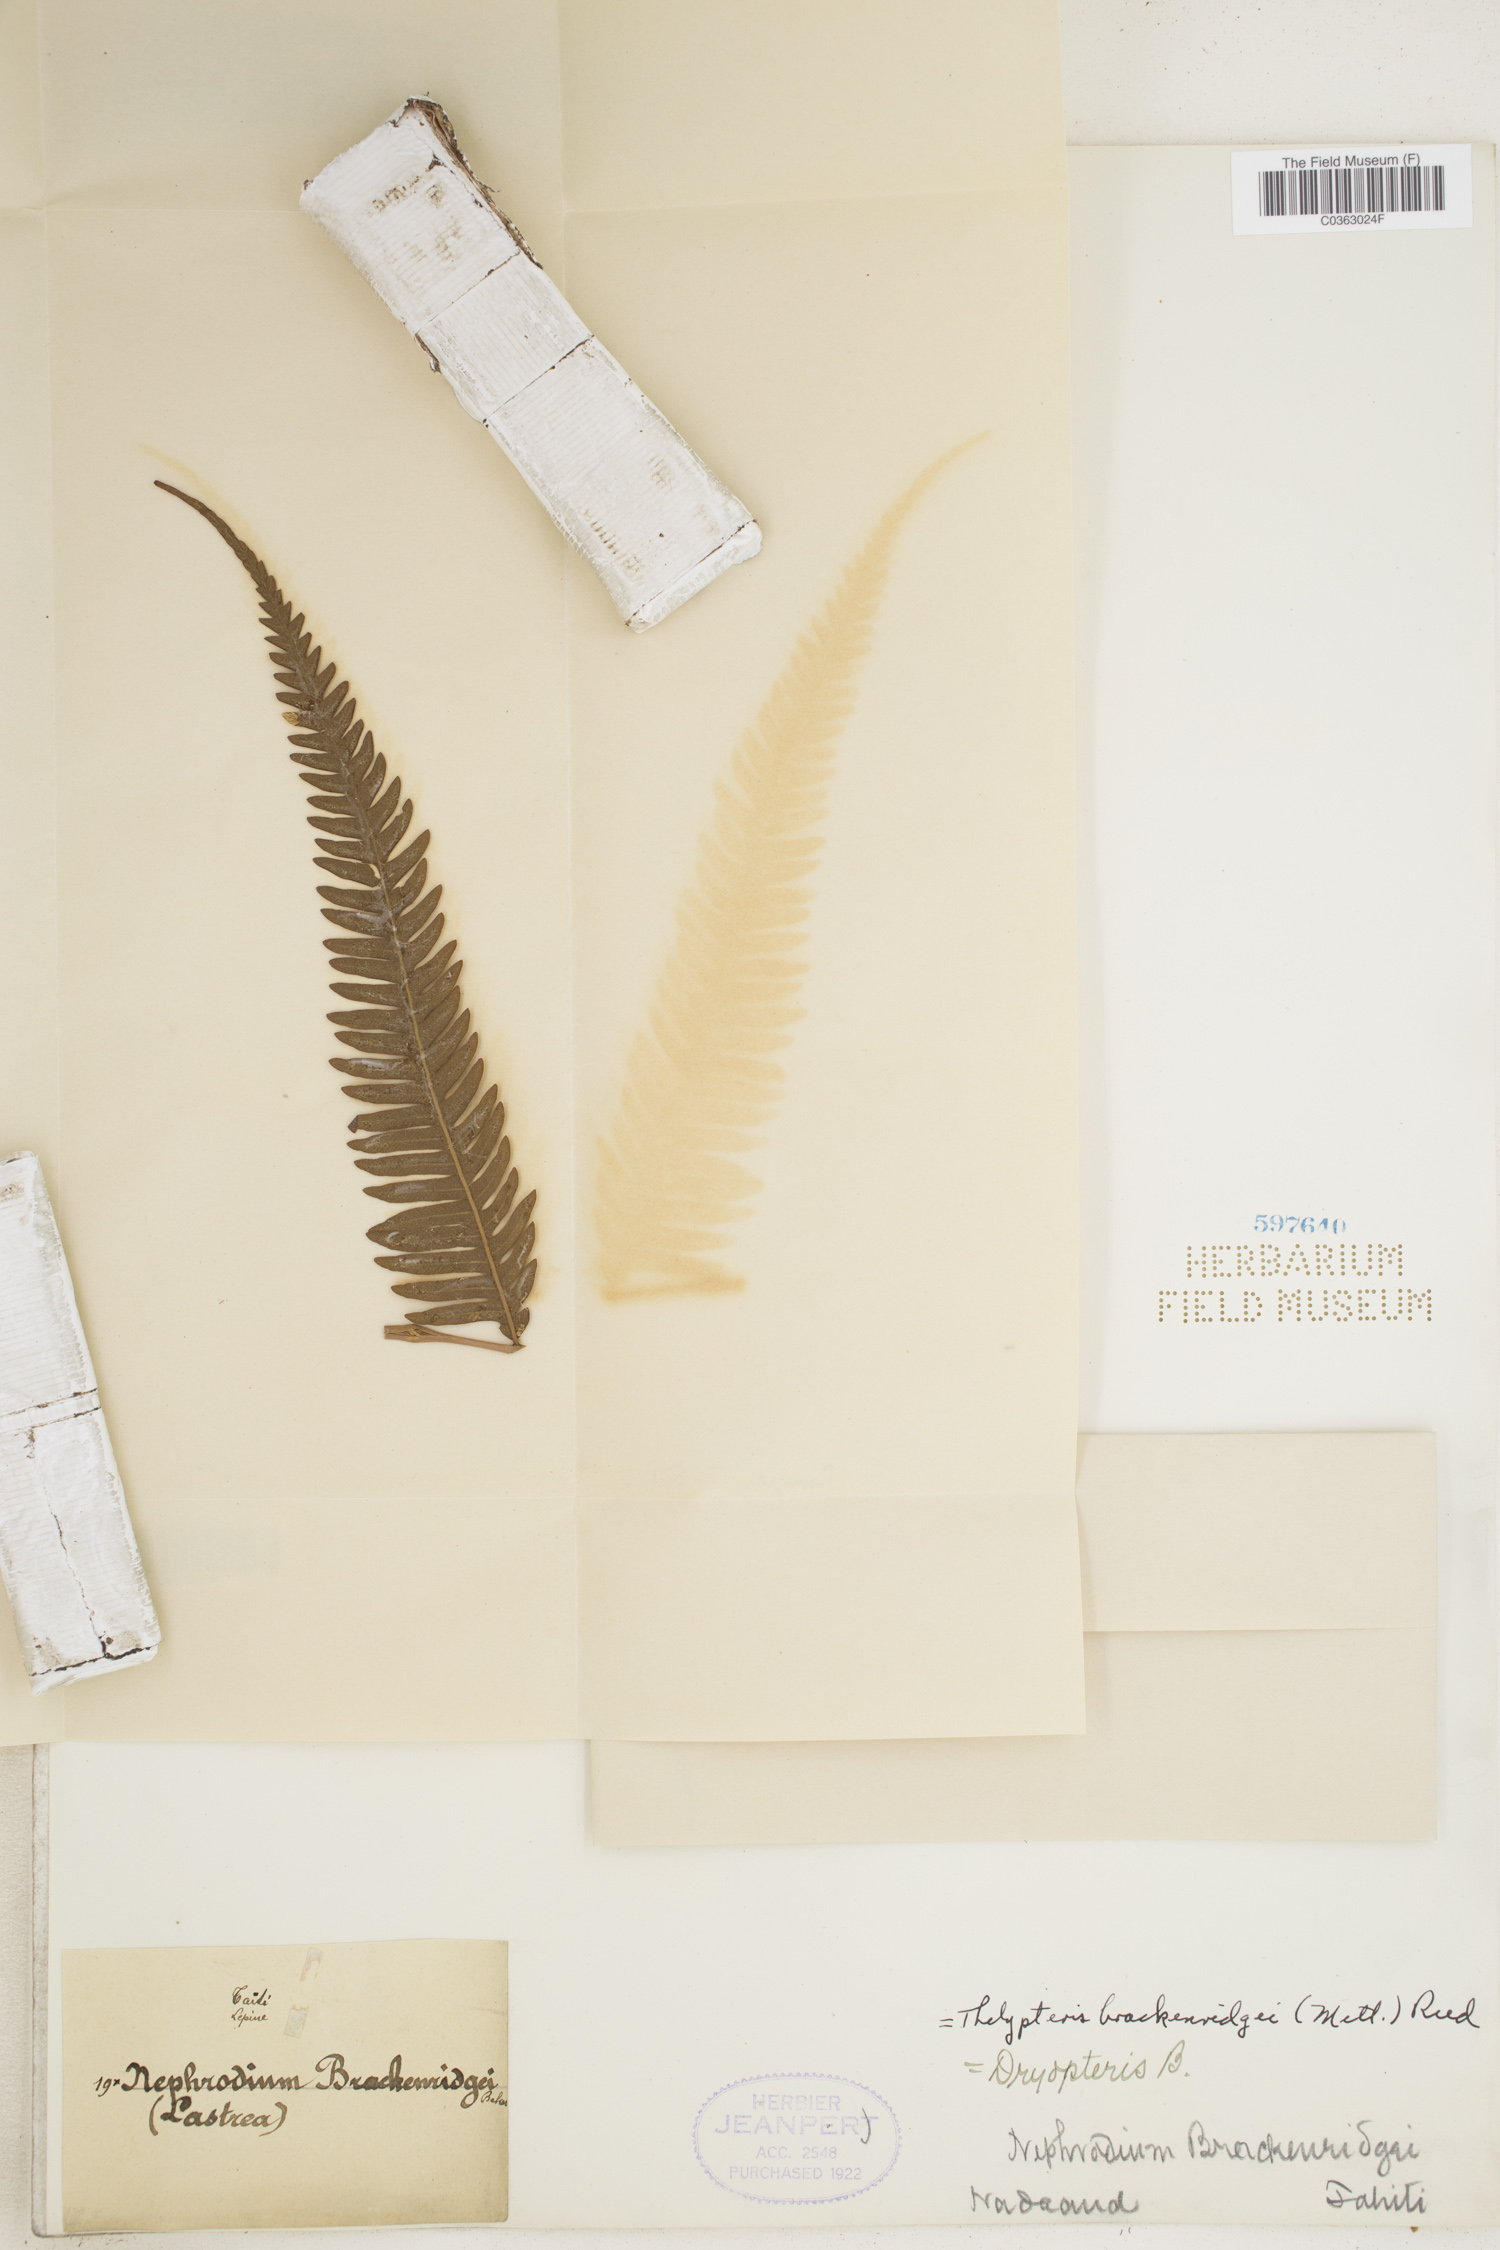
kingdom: Plantae
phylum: Tracheophyta
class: Polypodiopsida
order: Polypodiales
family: Thelypteridaceae
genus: Plesioneuron
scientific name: Plesioneuron attenuatum
